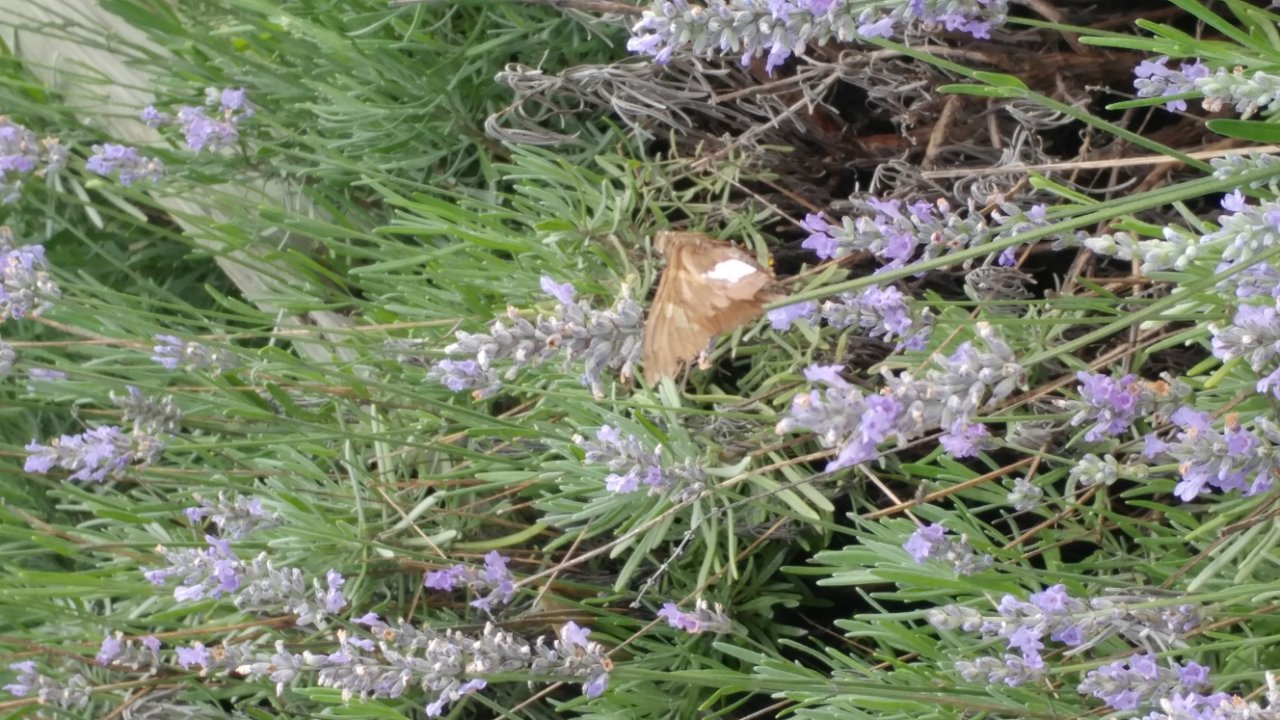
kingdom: Animalia
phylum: Arthropoda
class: Insecta
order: Lepidoptera
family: Hesperiidae
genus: Epargyreus
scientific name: Epargyreus clarus
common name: Silver-spotted Skipper
